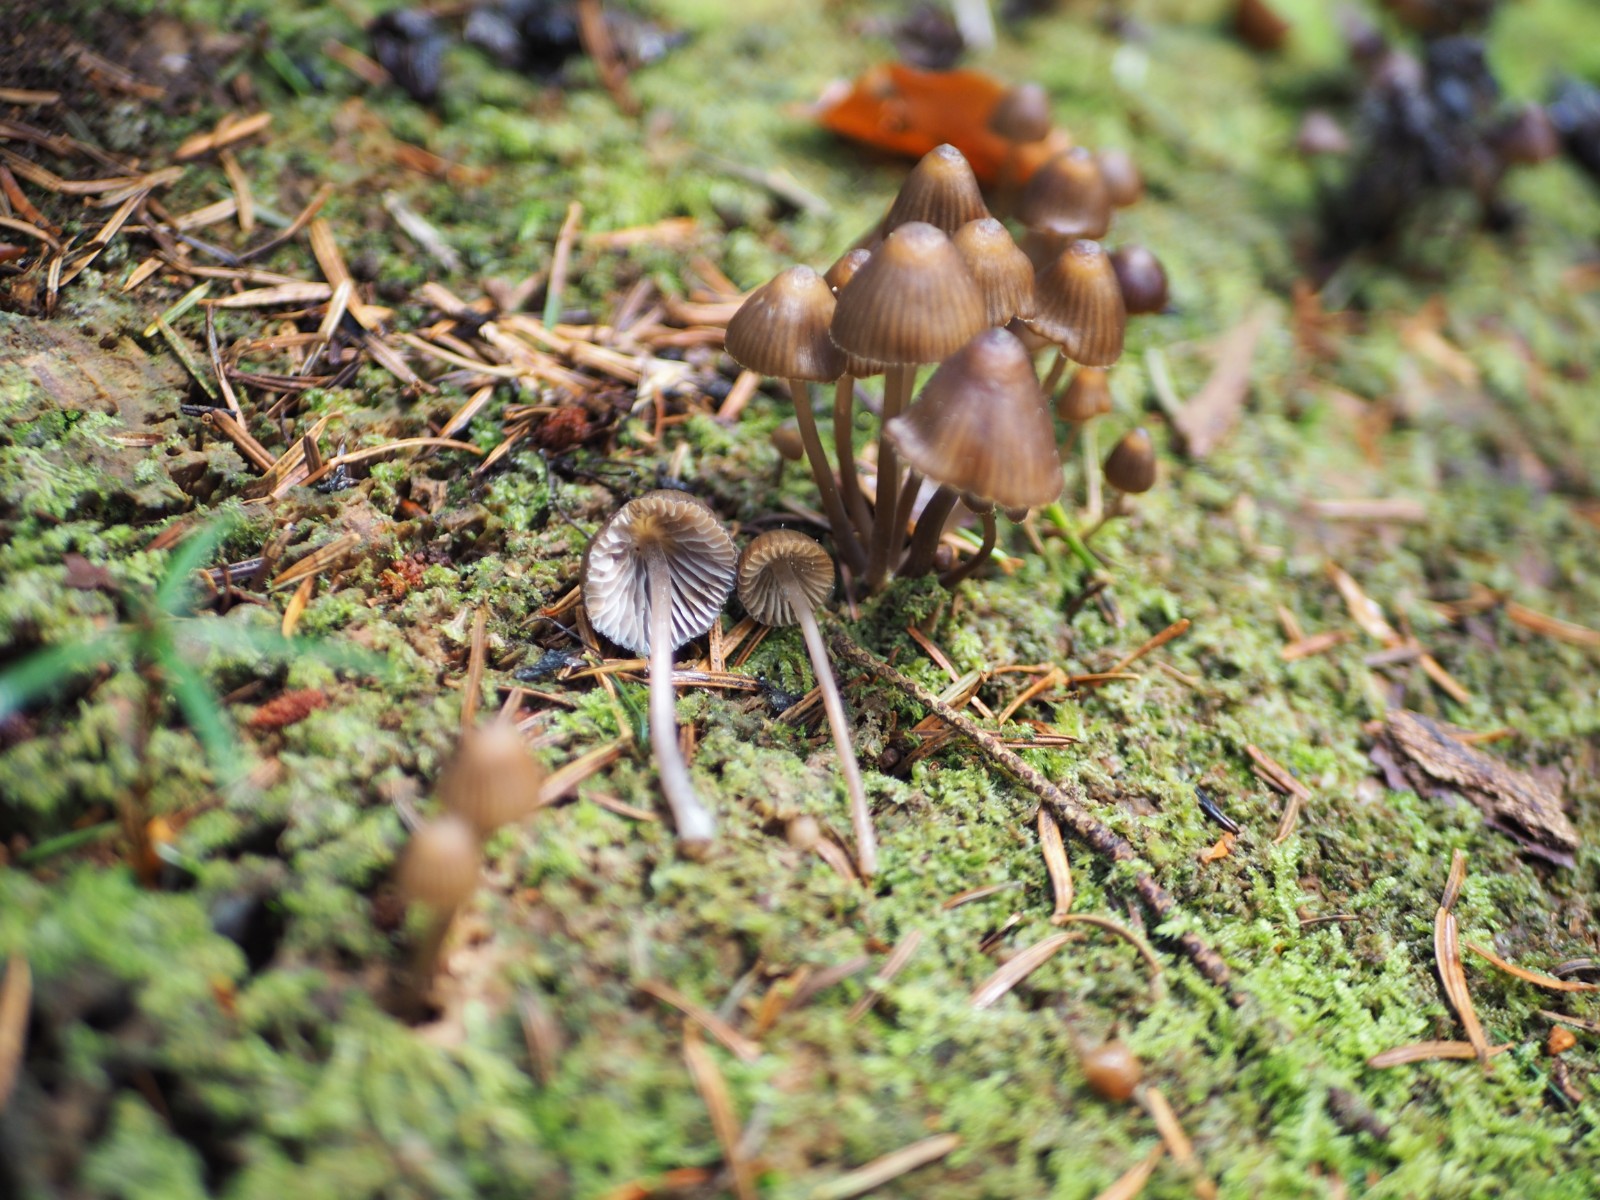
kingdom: Fungi
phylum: Basidiomycota
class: Agaricomycetes
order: Agaricales
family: Mycenaceae
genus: Mycena
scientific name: Mycena stipata
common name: stinkende huesvamp
